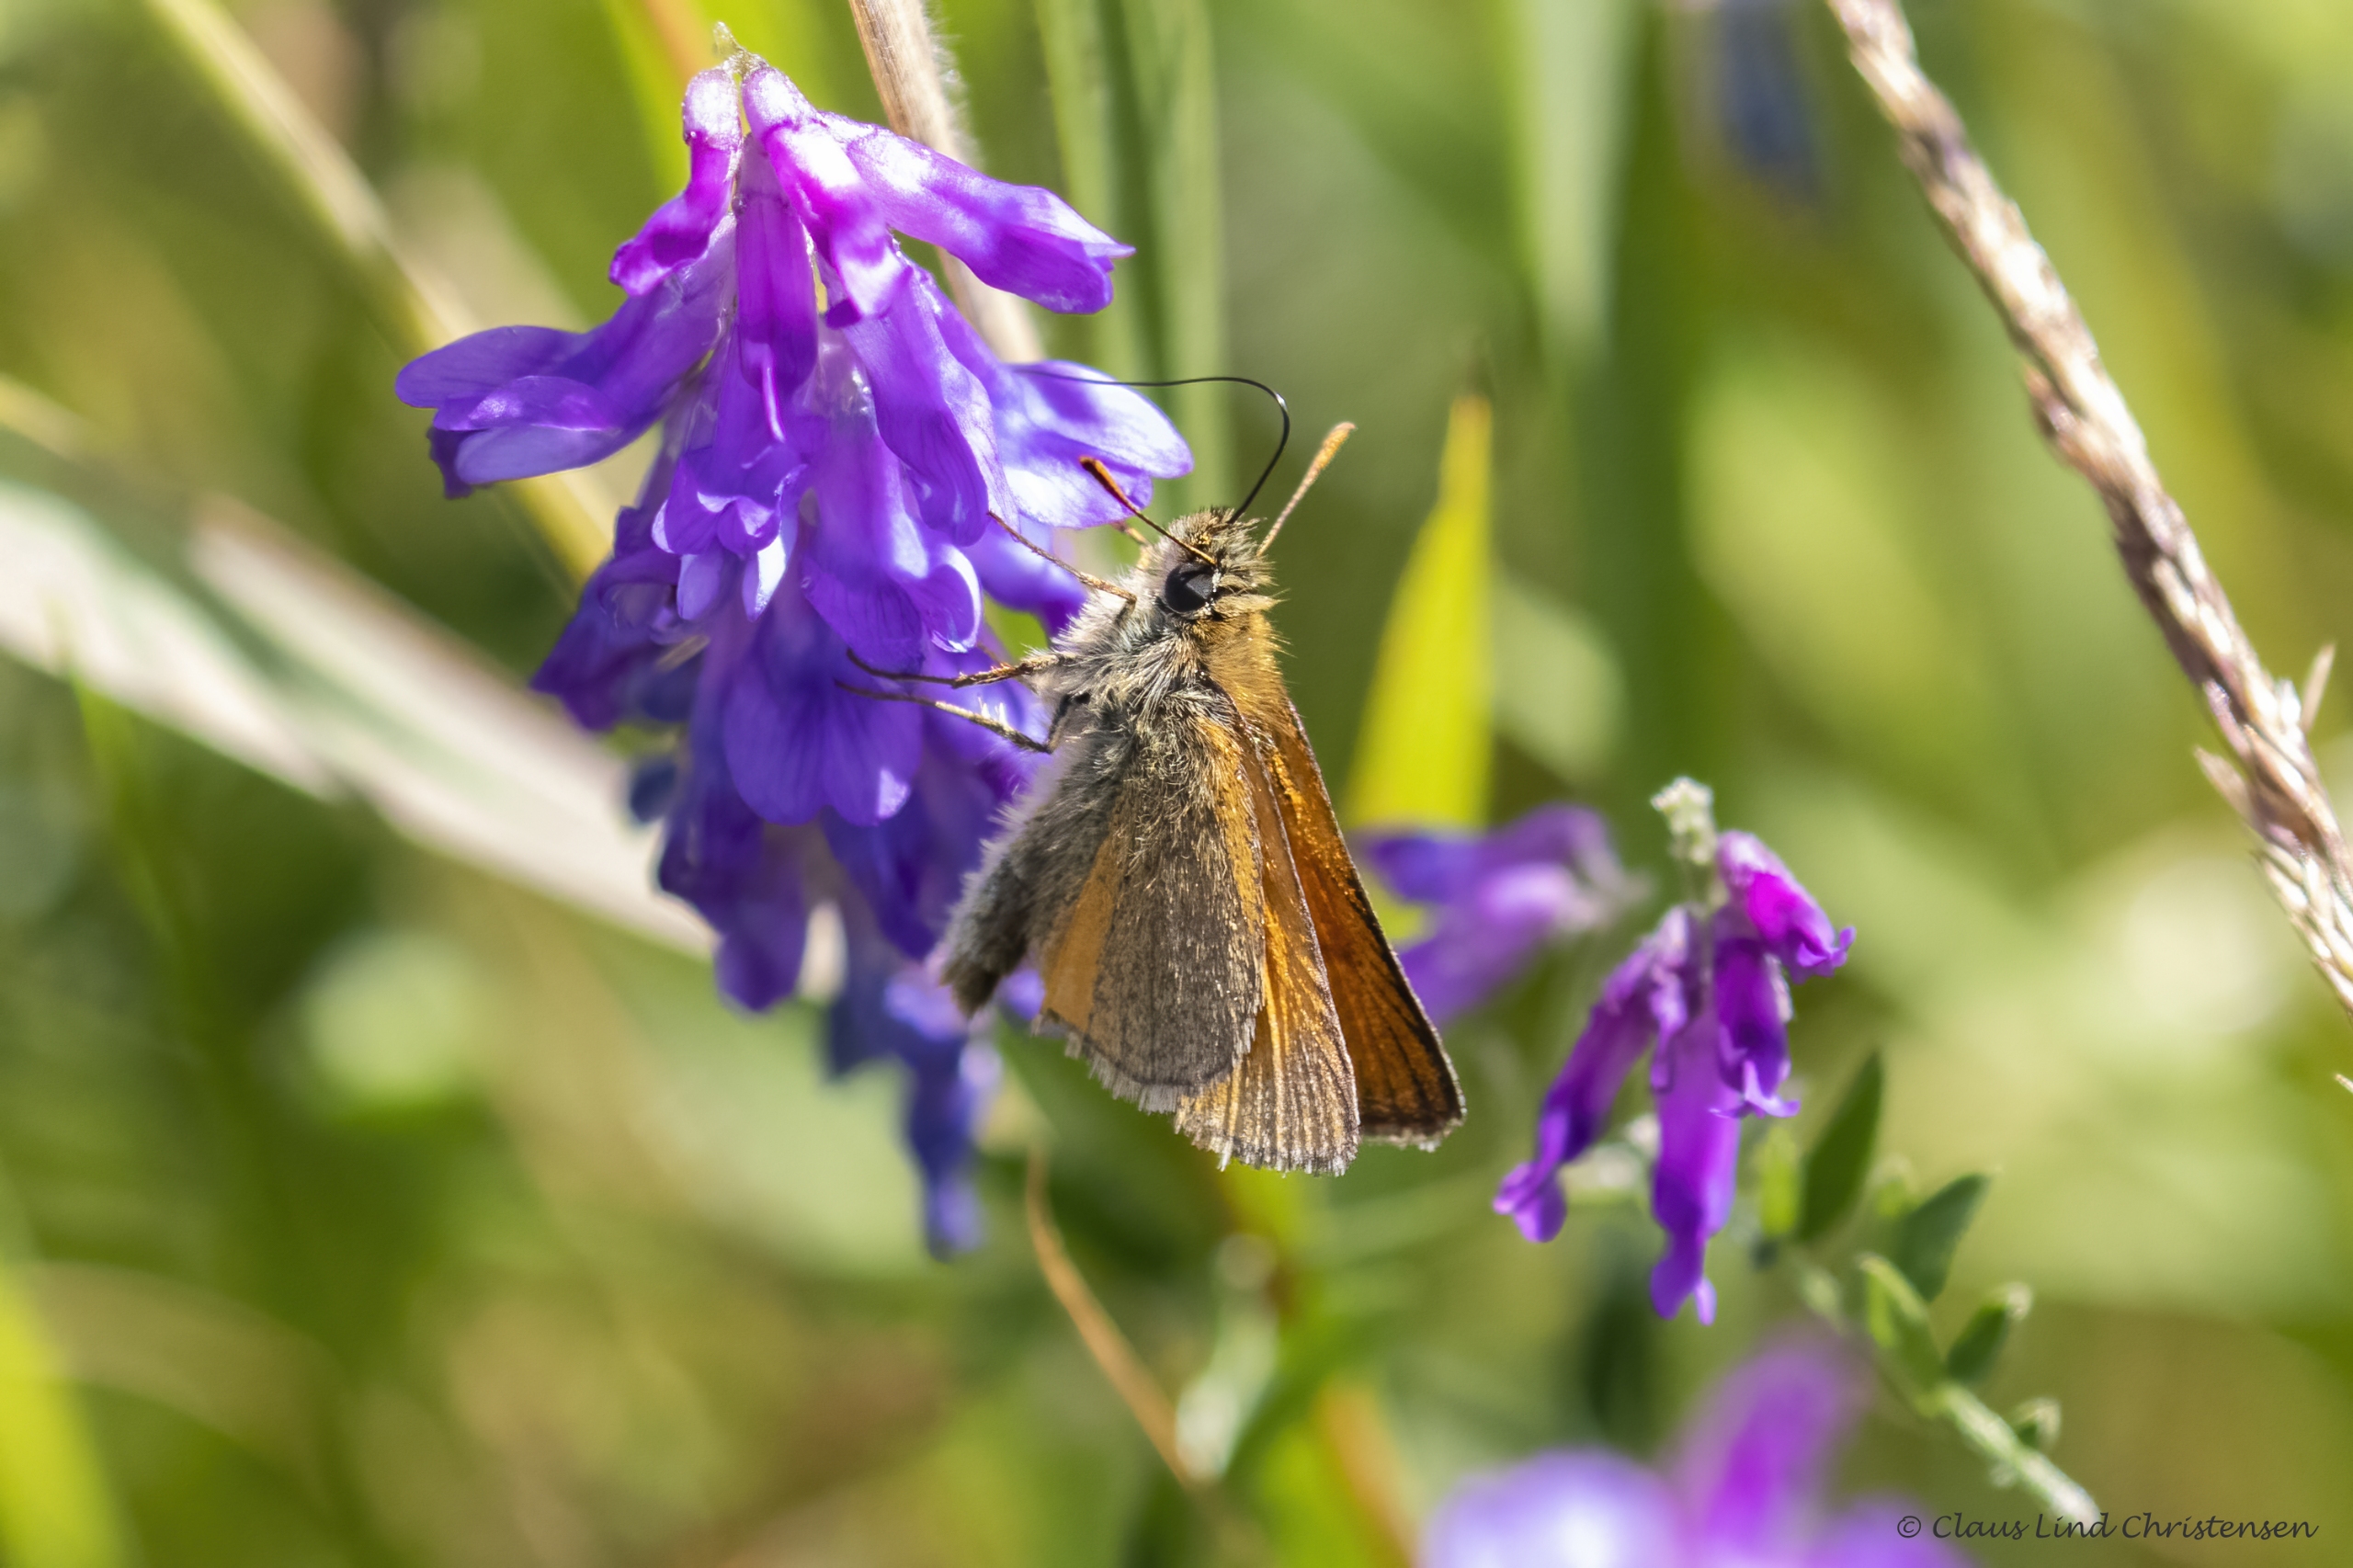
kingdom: Animalia
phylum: Arthropoda
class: Insecta
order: Lepidoptera
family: Hesperiidae
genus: Thymelicus
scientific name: Thymelicus sylvestris
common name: Skråstregbredpande
